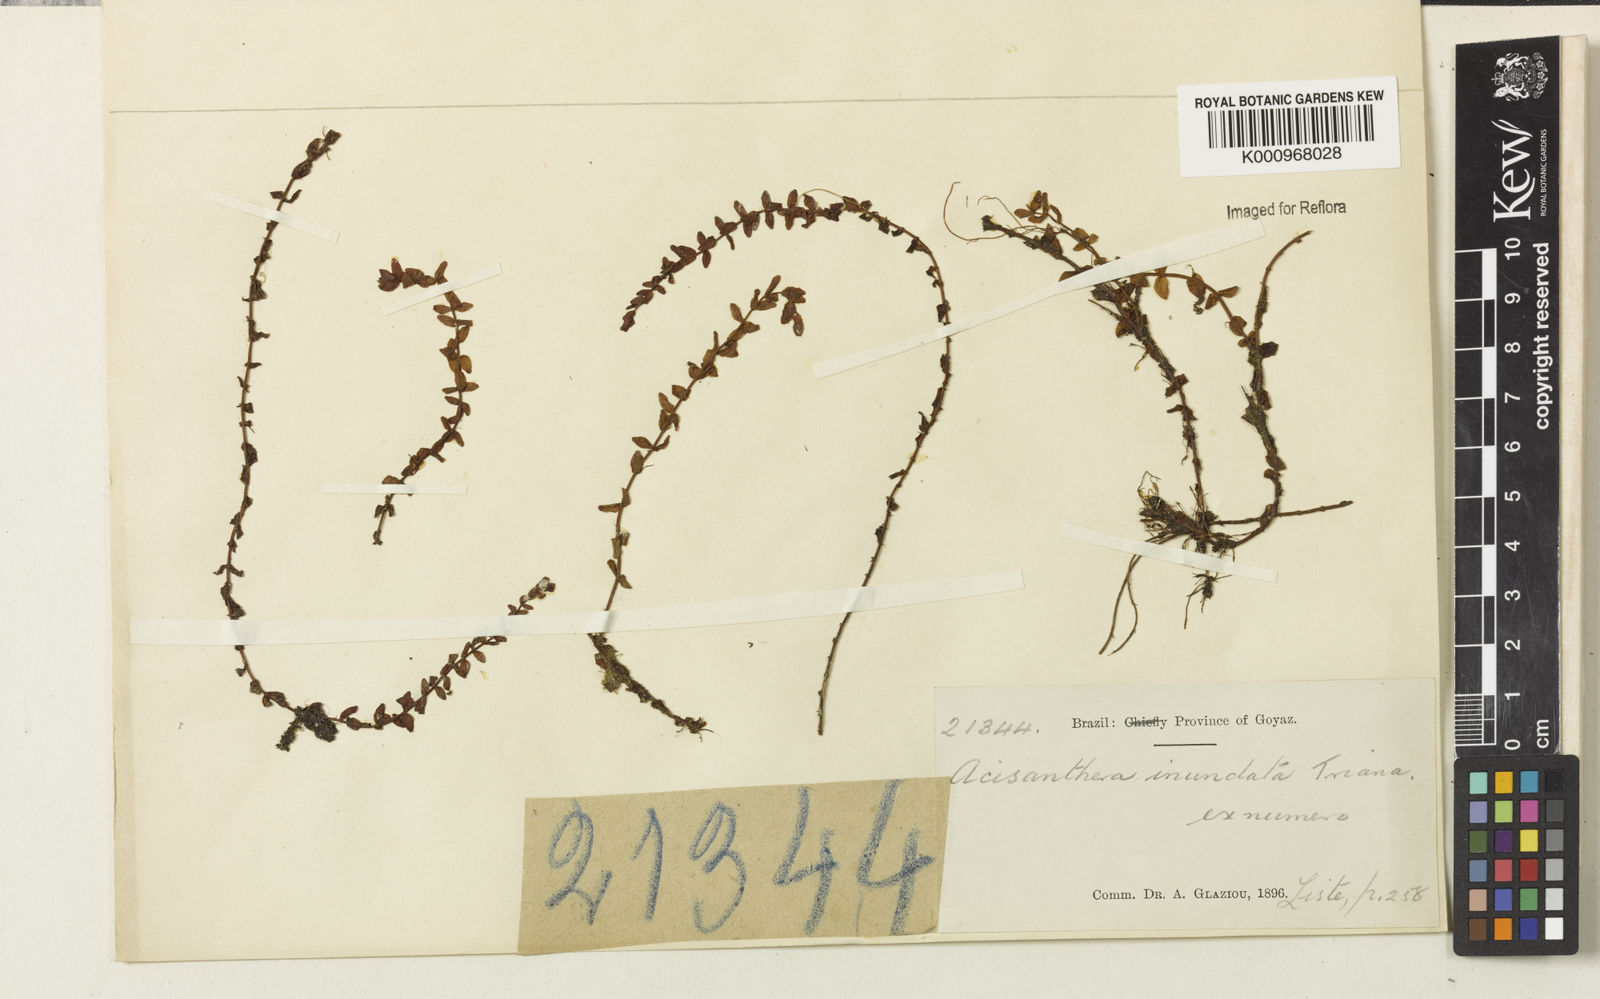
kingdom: Plantae
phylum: Tracheophyta
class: Magnoliopsida
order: Myrtales
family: Melastomataceae
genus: Noterophila
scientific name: Noterophila inundata
